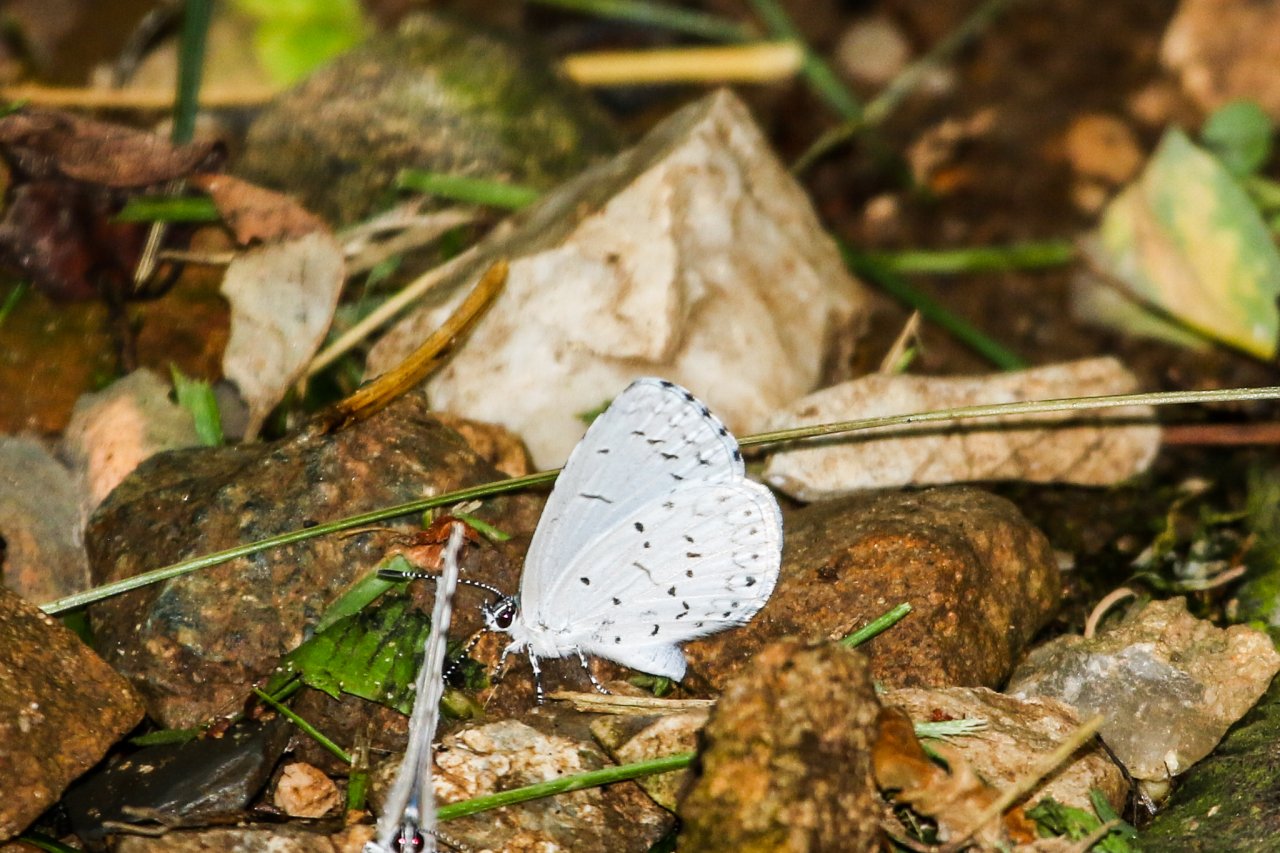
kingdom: Animalia
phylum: Arthropoda
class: Insecta
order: Lepidoptera
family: Lycaenidae
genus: Cyaniris
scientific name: Cyaniris neglecta
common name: Summer Azure
